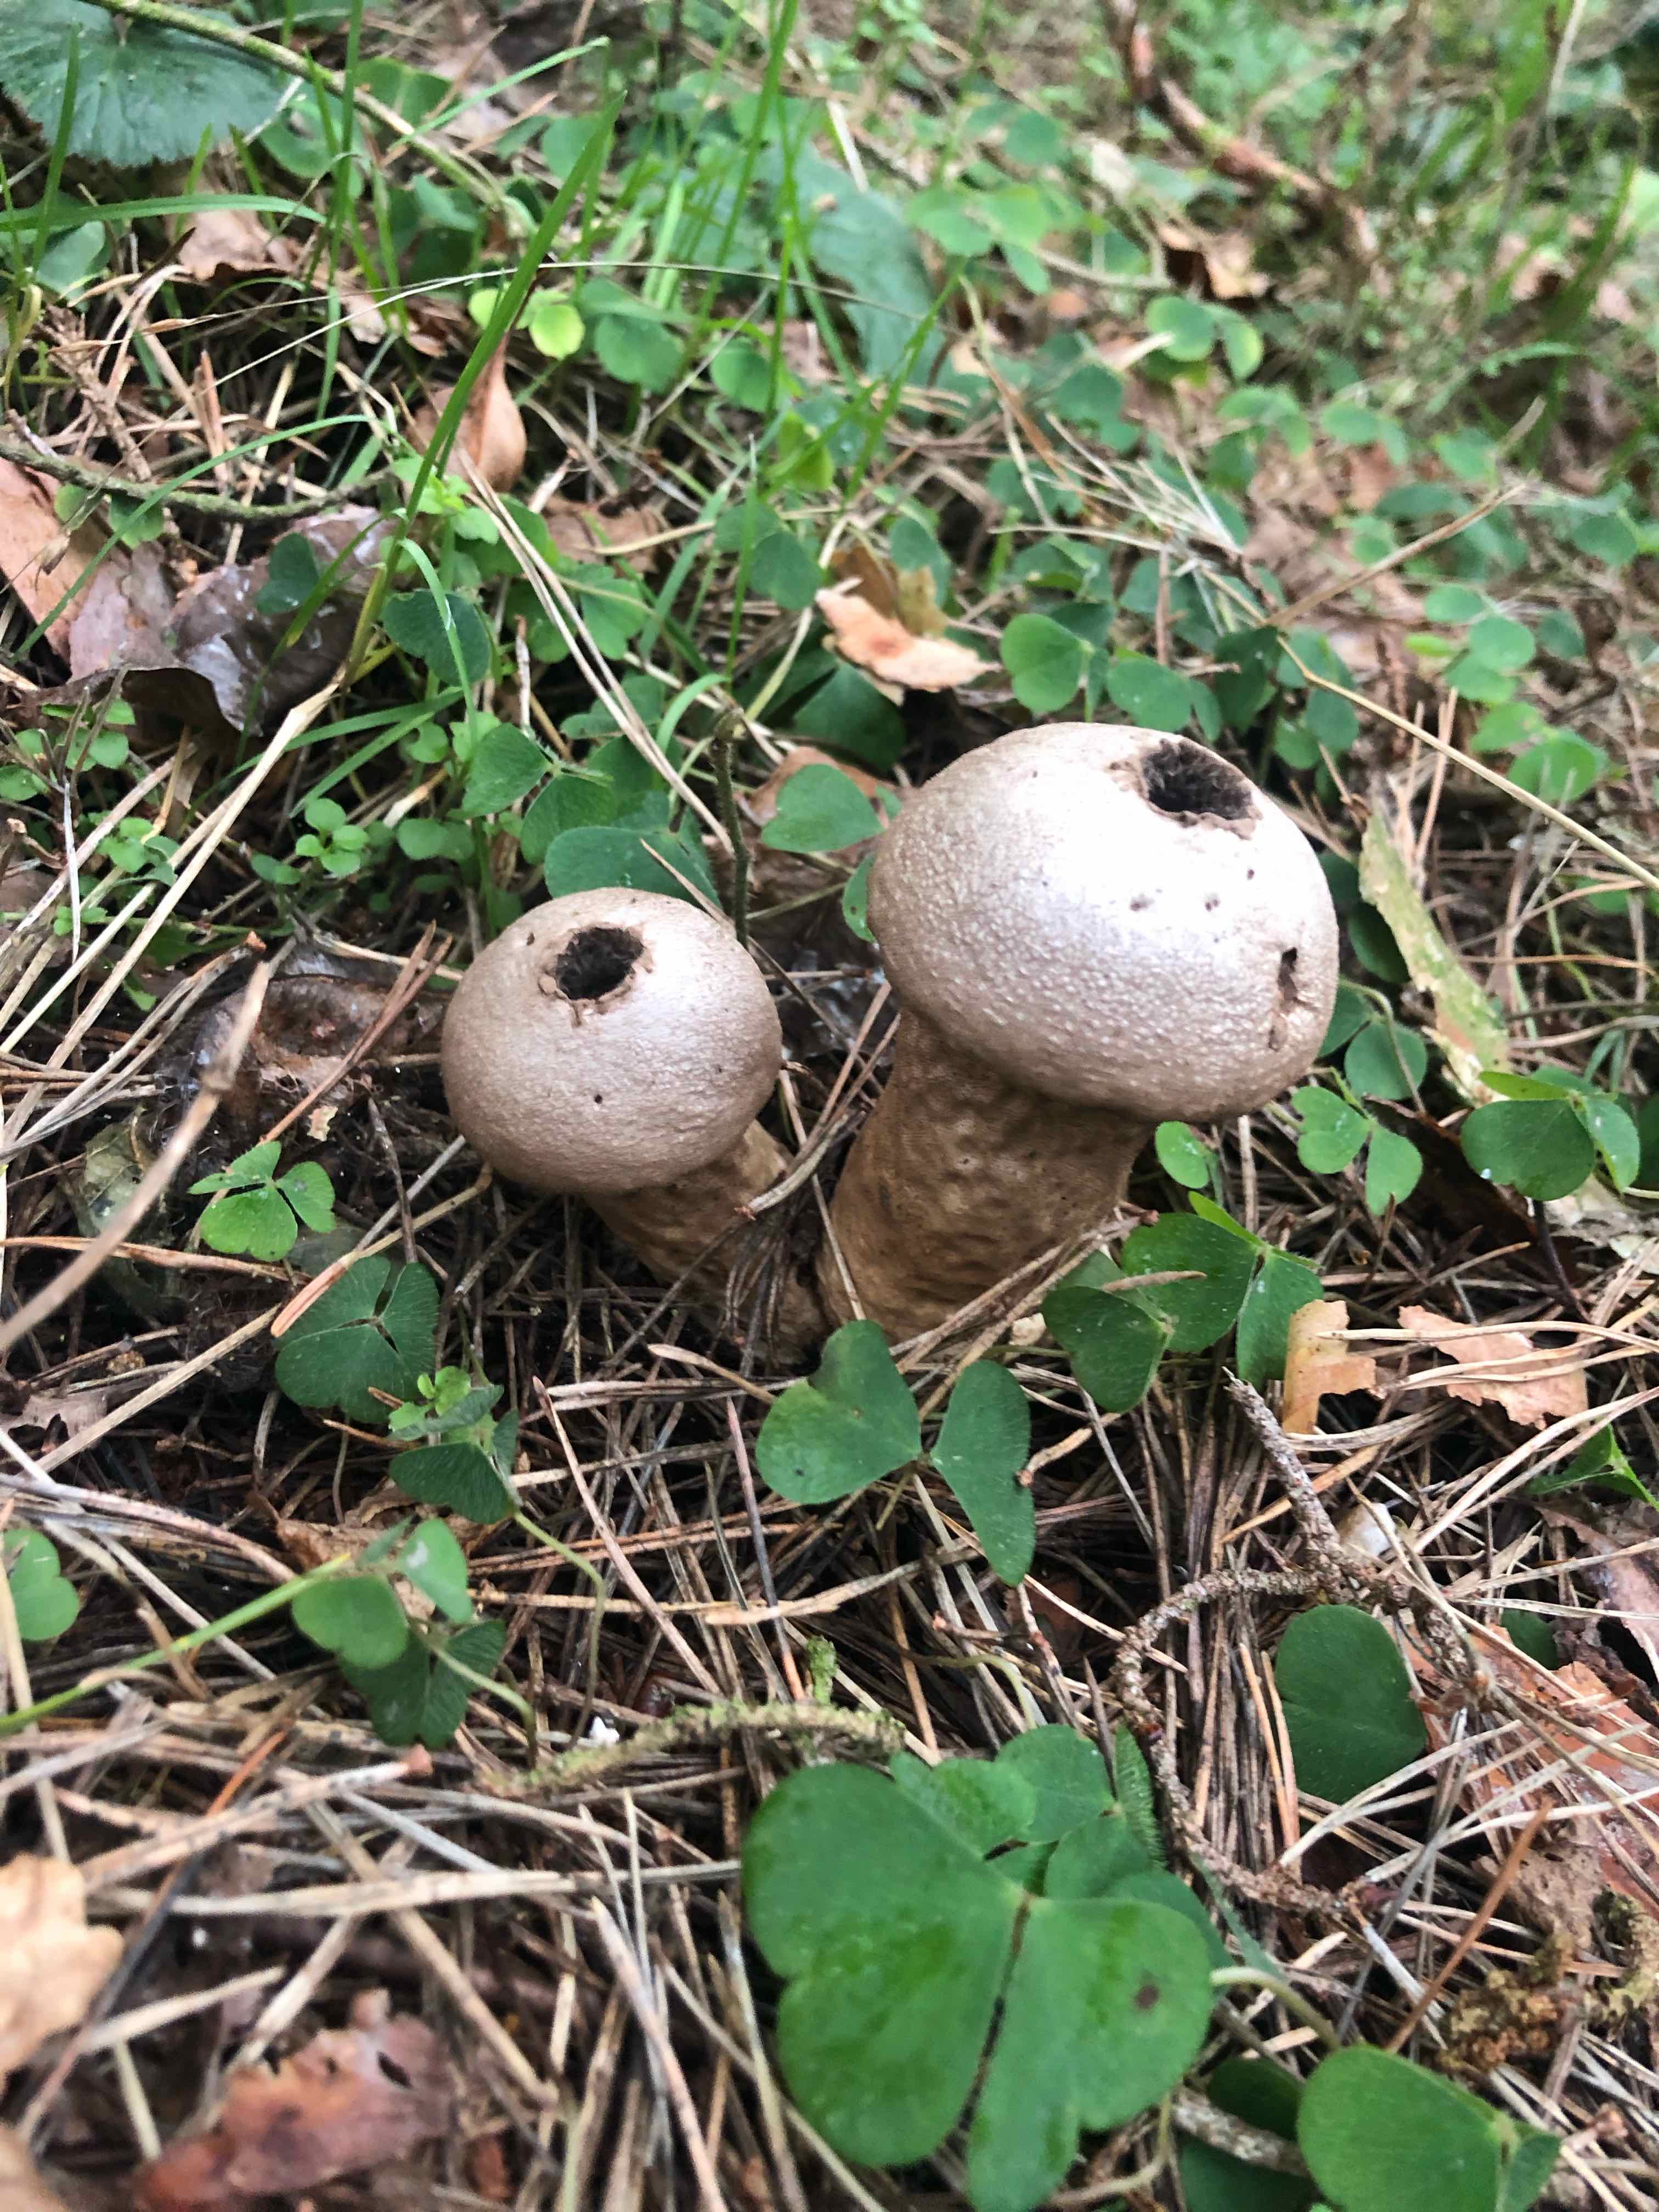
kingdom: Fungi
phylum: Basidiomycota
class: Agaricomycetes
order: Agaricales
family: Lycoperdaceae
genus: Lycoperdon
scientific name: Lycoperdon perlatum
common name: krystal-støvbold
